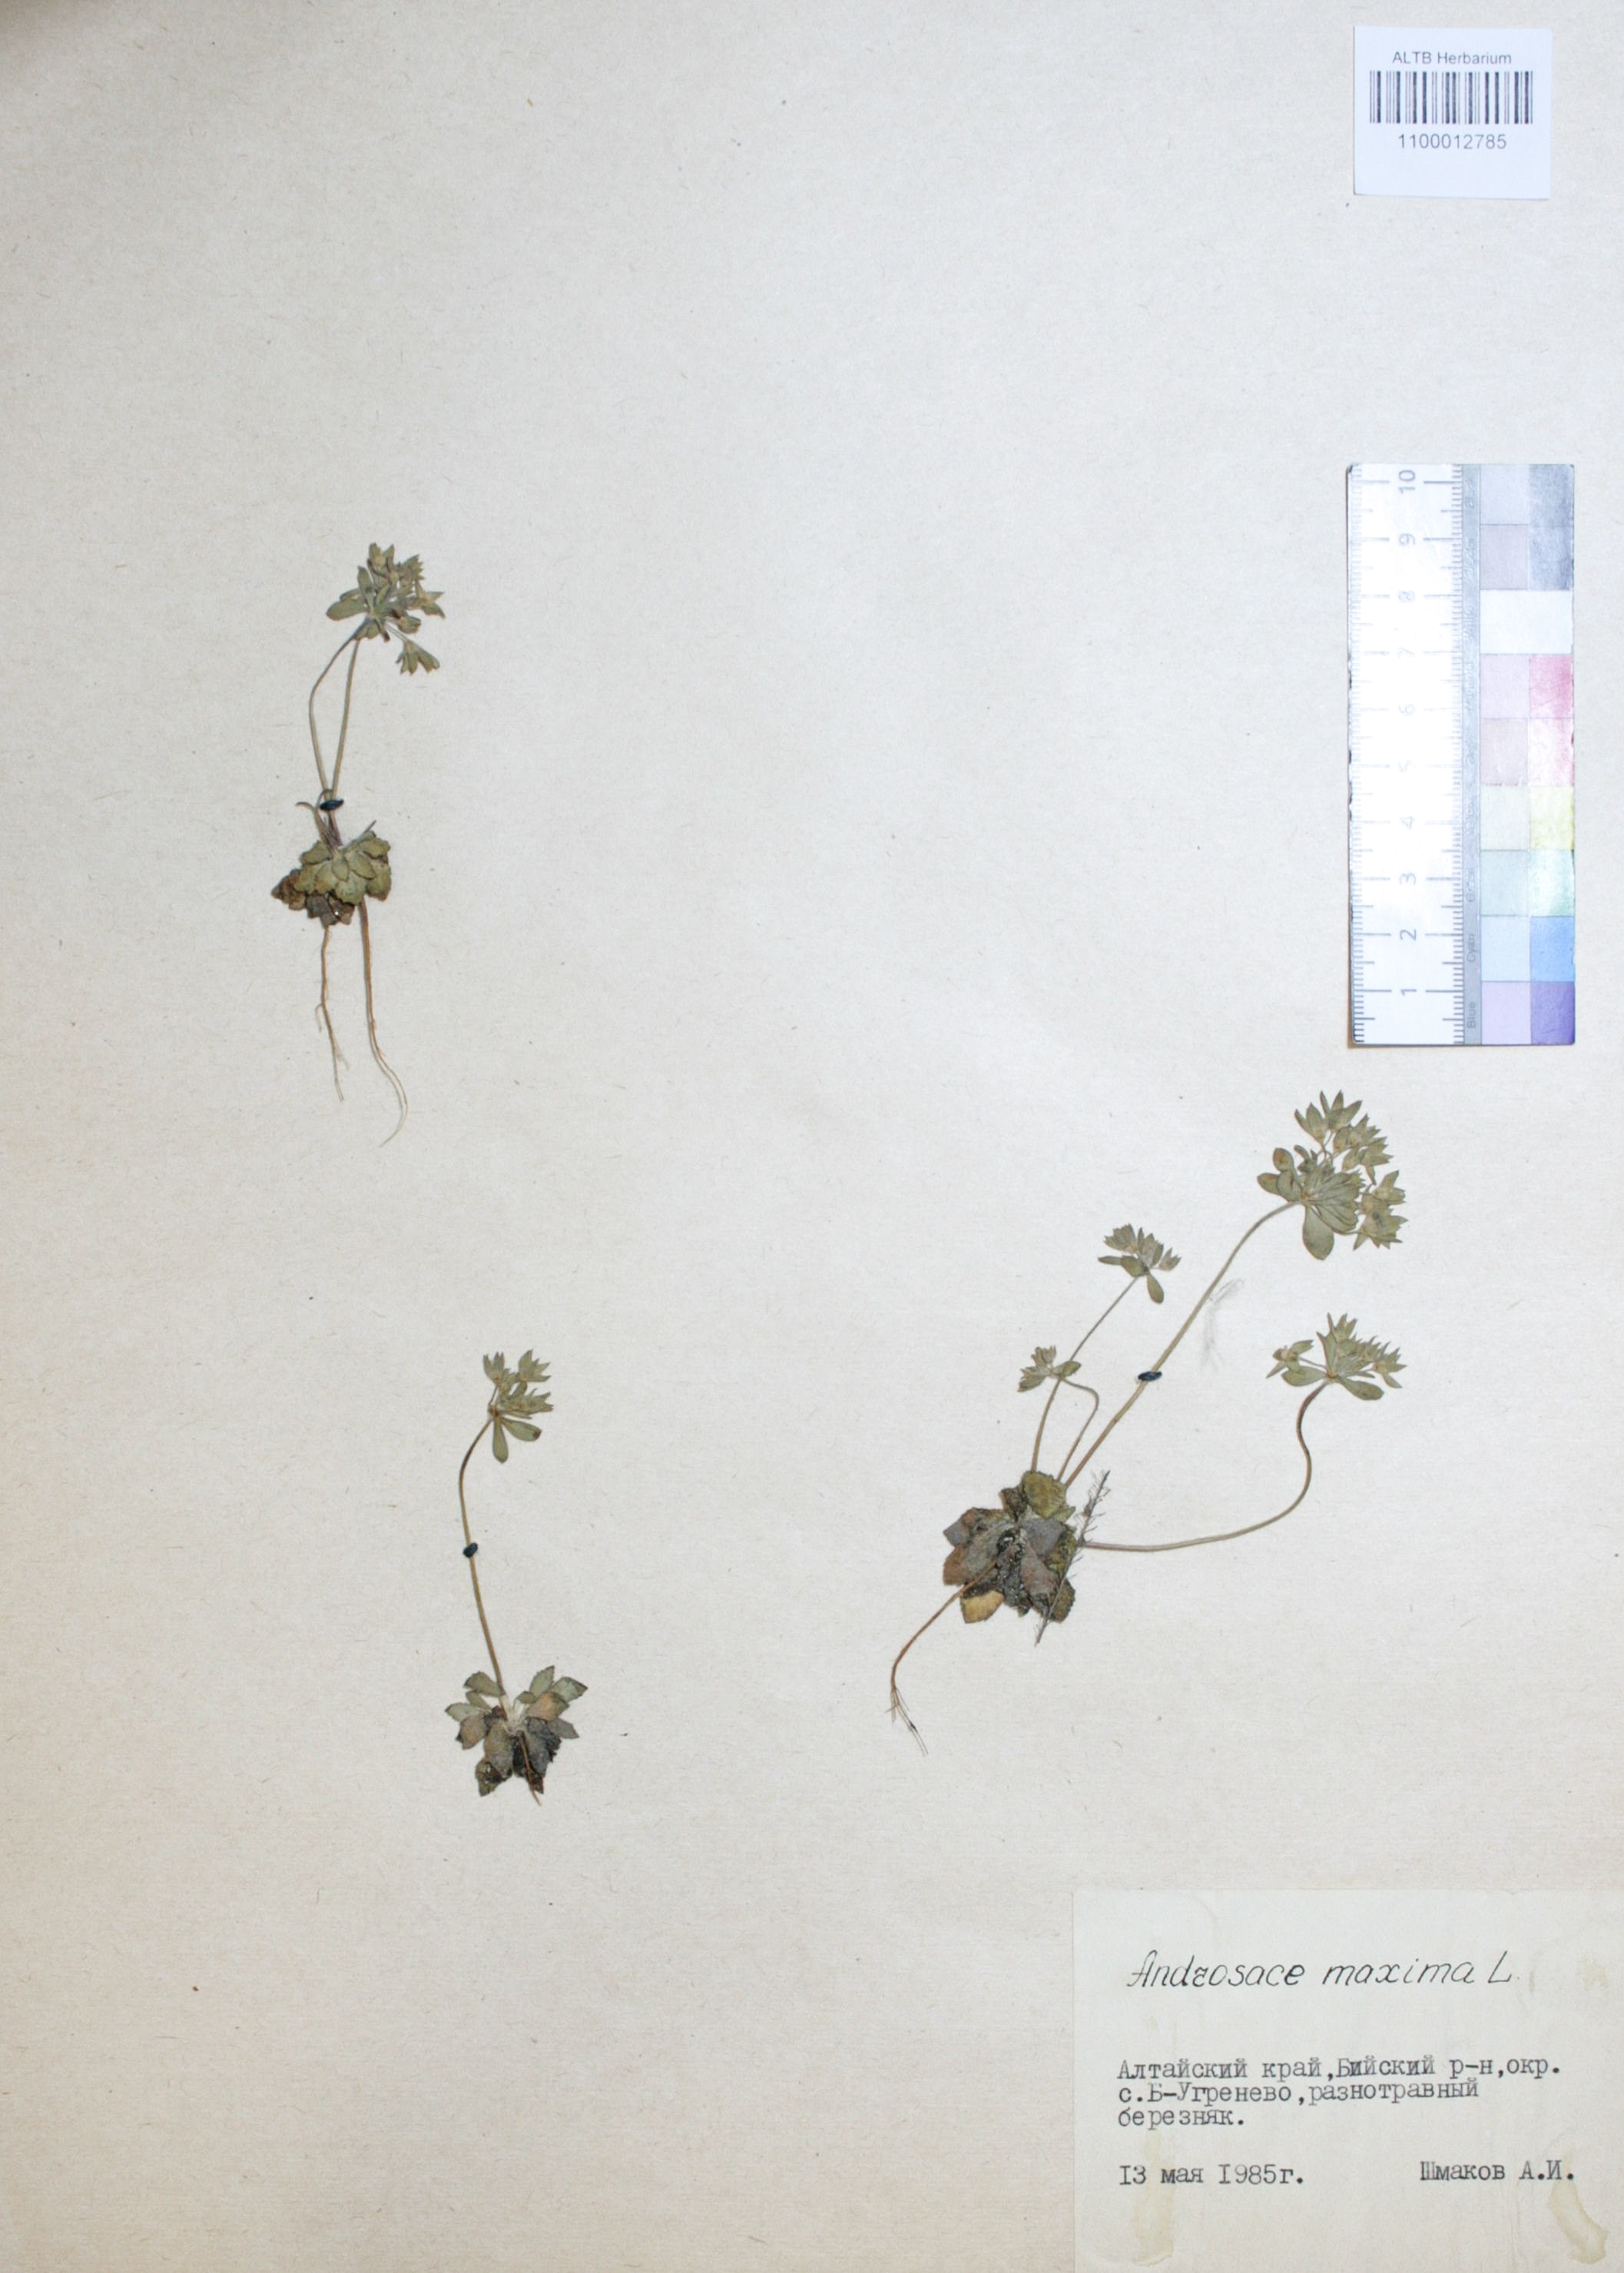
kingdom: Plantae
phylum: Tracheophyta
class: Magnoliopsida
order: Ericales
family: Primulaceae
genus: Androsace
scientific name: Androsace maxima
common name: Annual androsace
